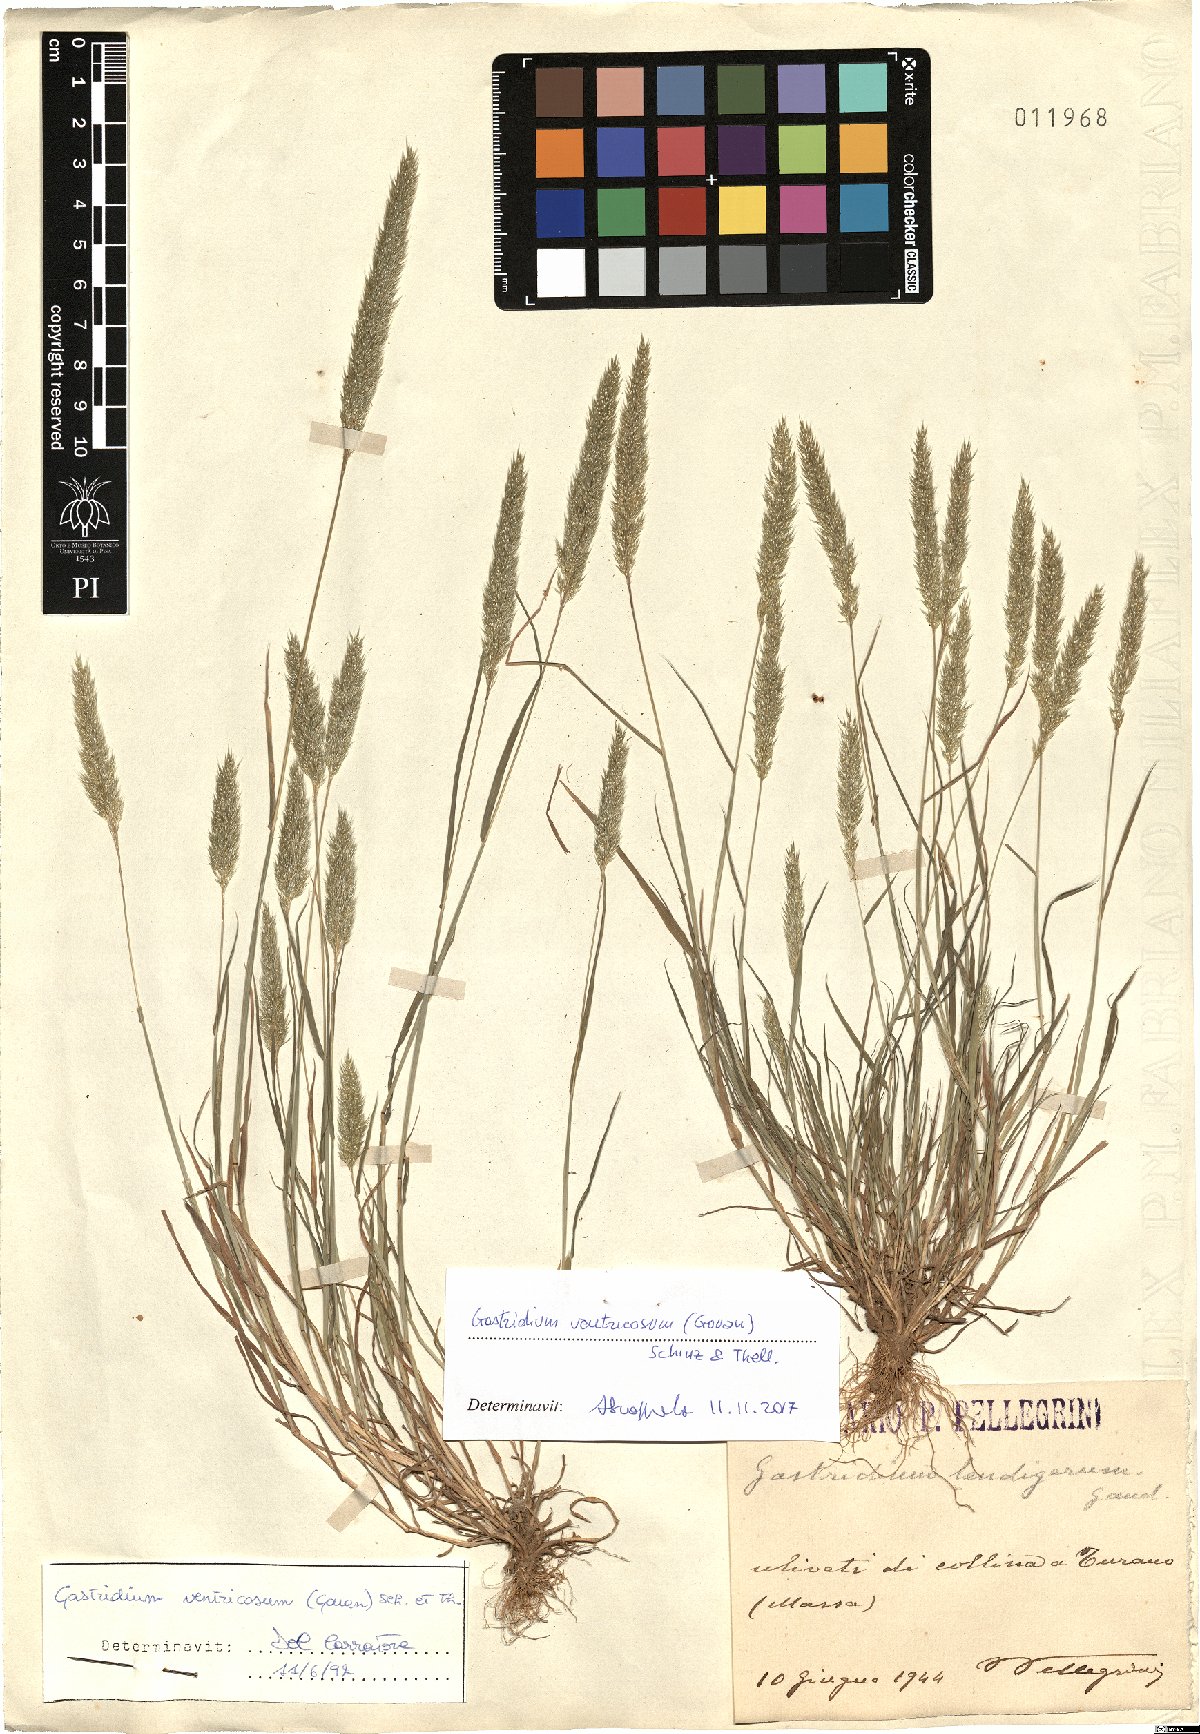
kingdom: Plantae
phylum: Tracheophyta
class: Liliopsida
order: Poales
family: Poaceae
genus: Gastridium
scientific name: Gastridium ventricosum
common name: Nit-grass
